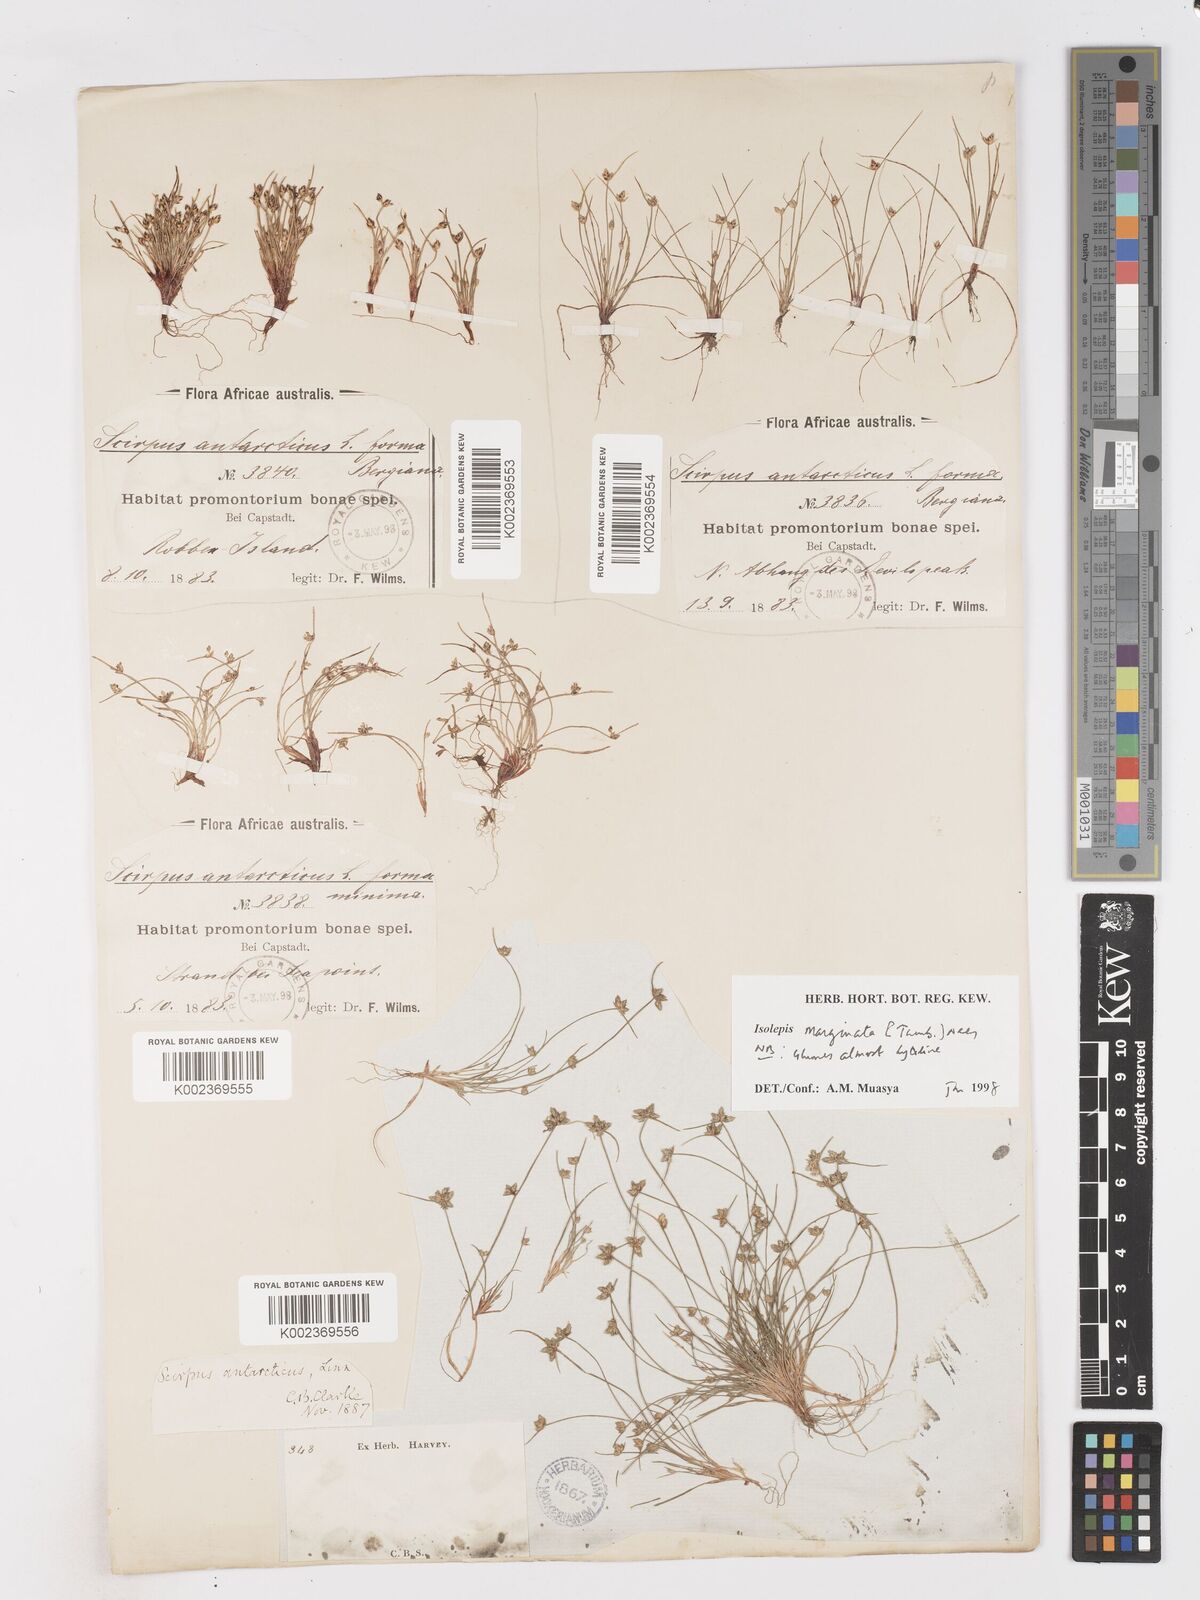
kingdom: Plantae
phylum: Tracheophyta
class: Liliopsida
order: Poales
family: Cyperaceae
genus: Isolepis
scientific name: Isolepis marginata
